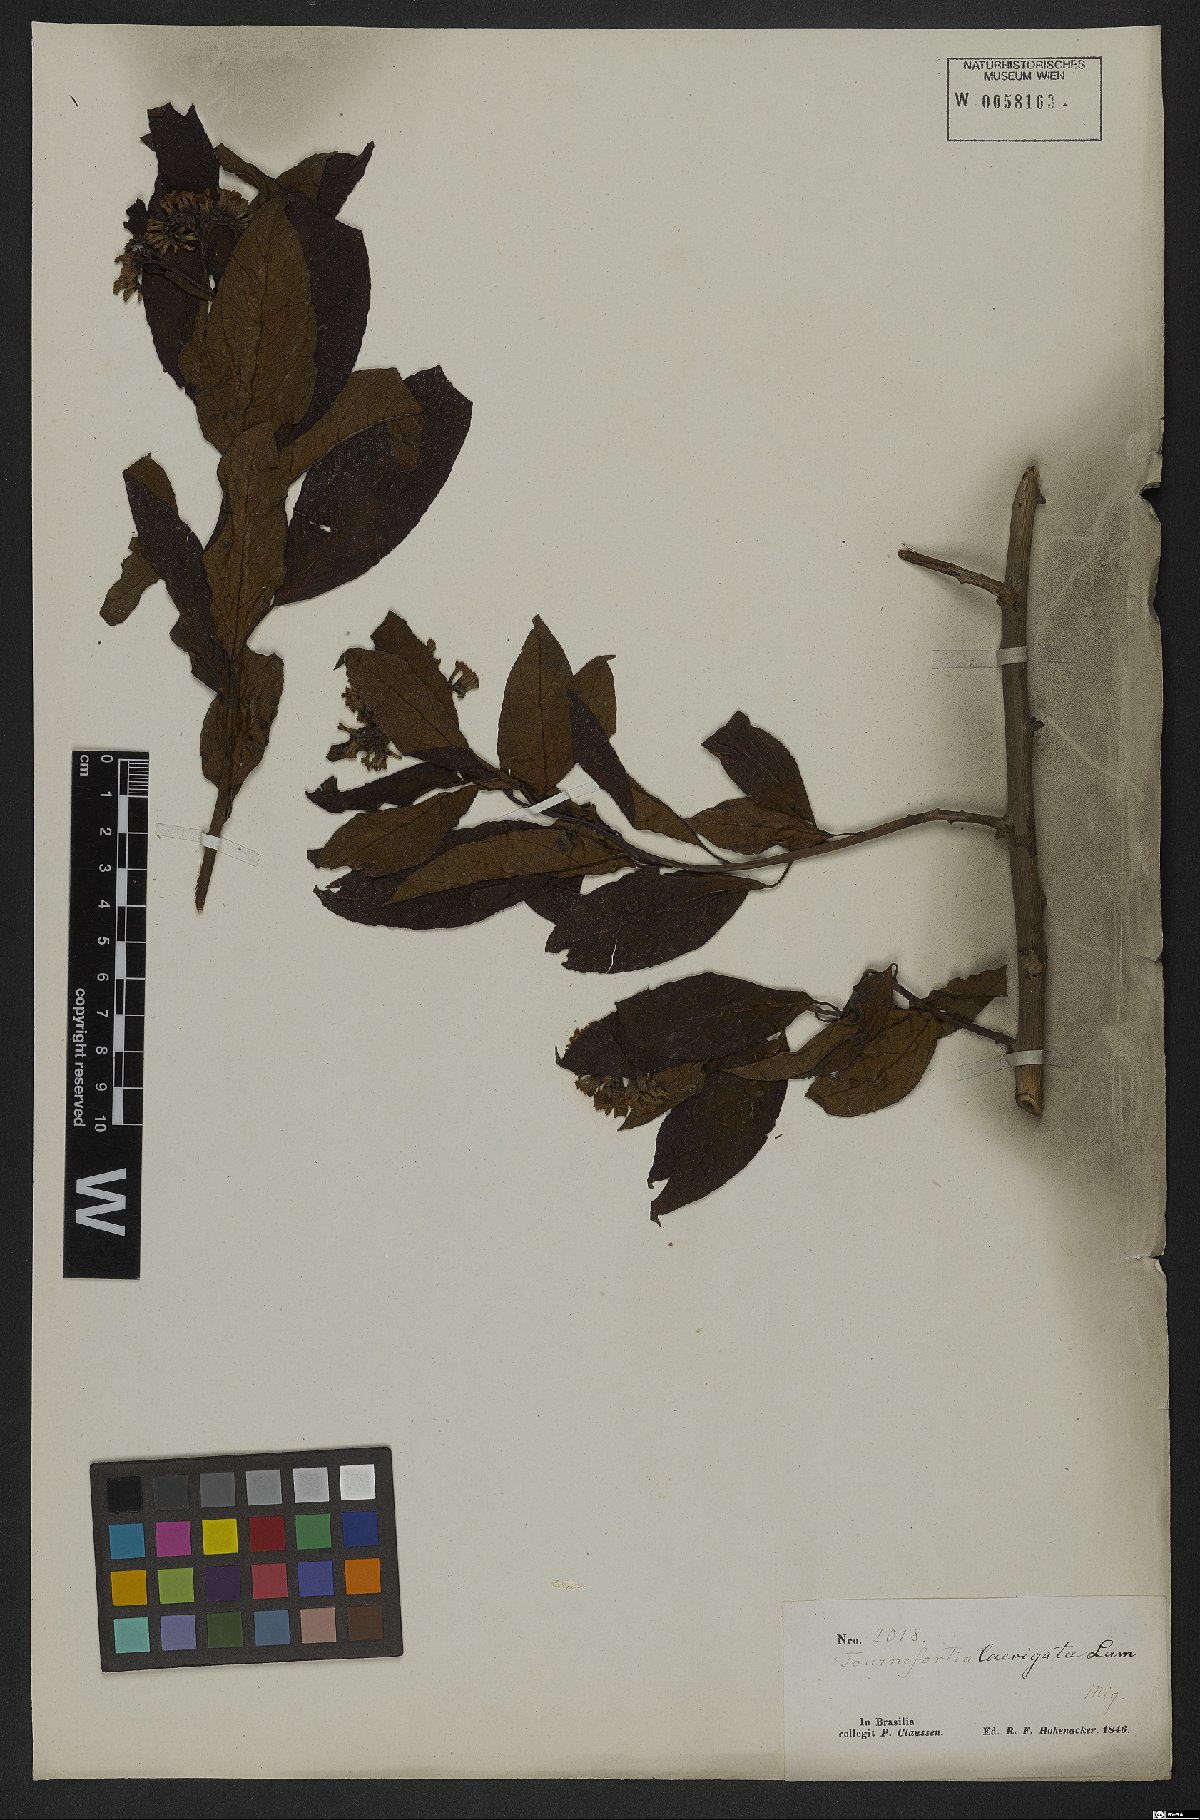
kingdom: Plantae
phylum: Tracheophyta
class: Magnoliopsida
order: Boraginales
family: Heliotropiaceae
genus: Heliotropium
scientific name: Heliotropium verdcourtii
